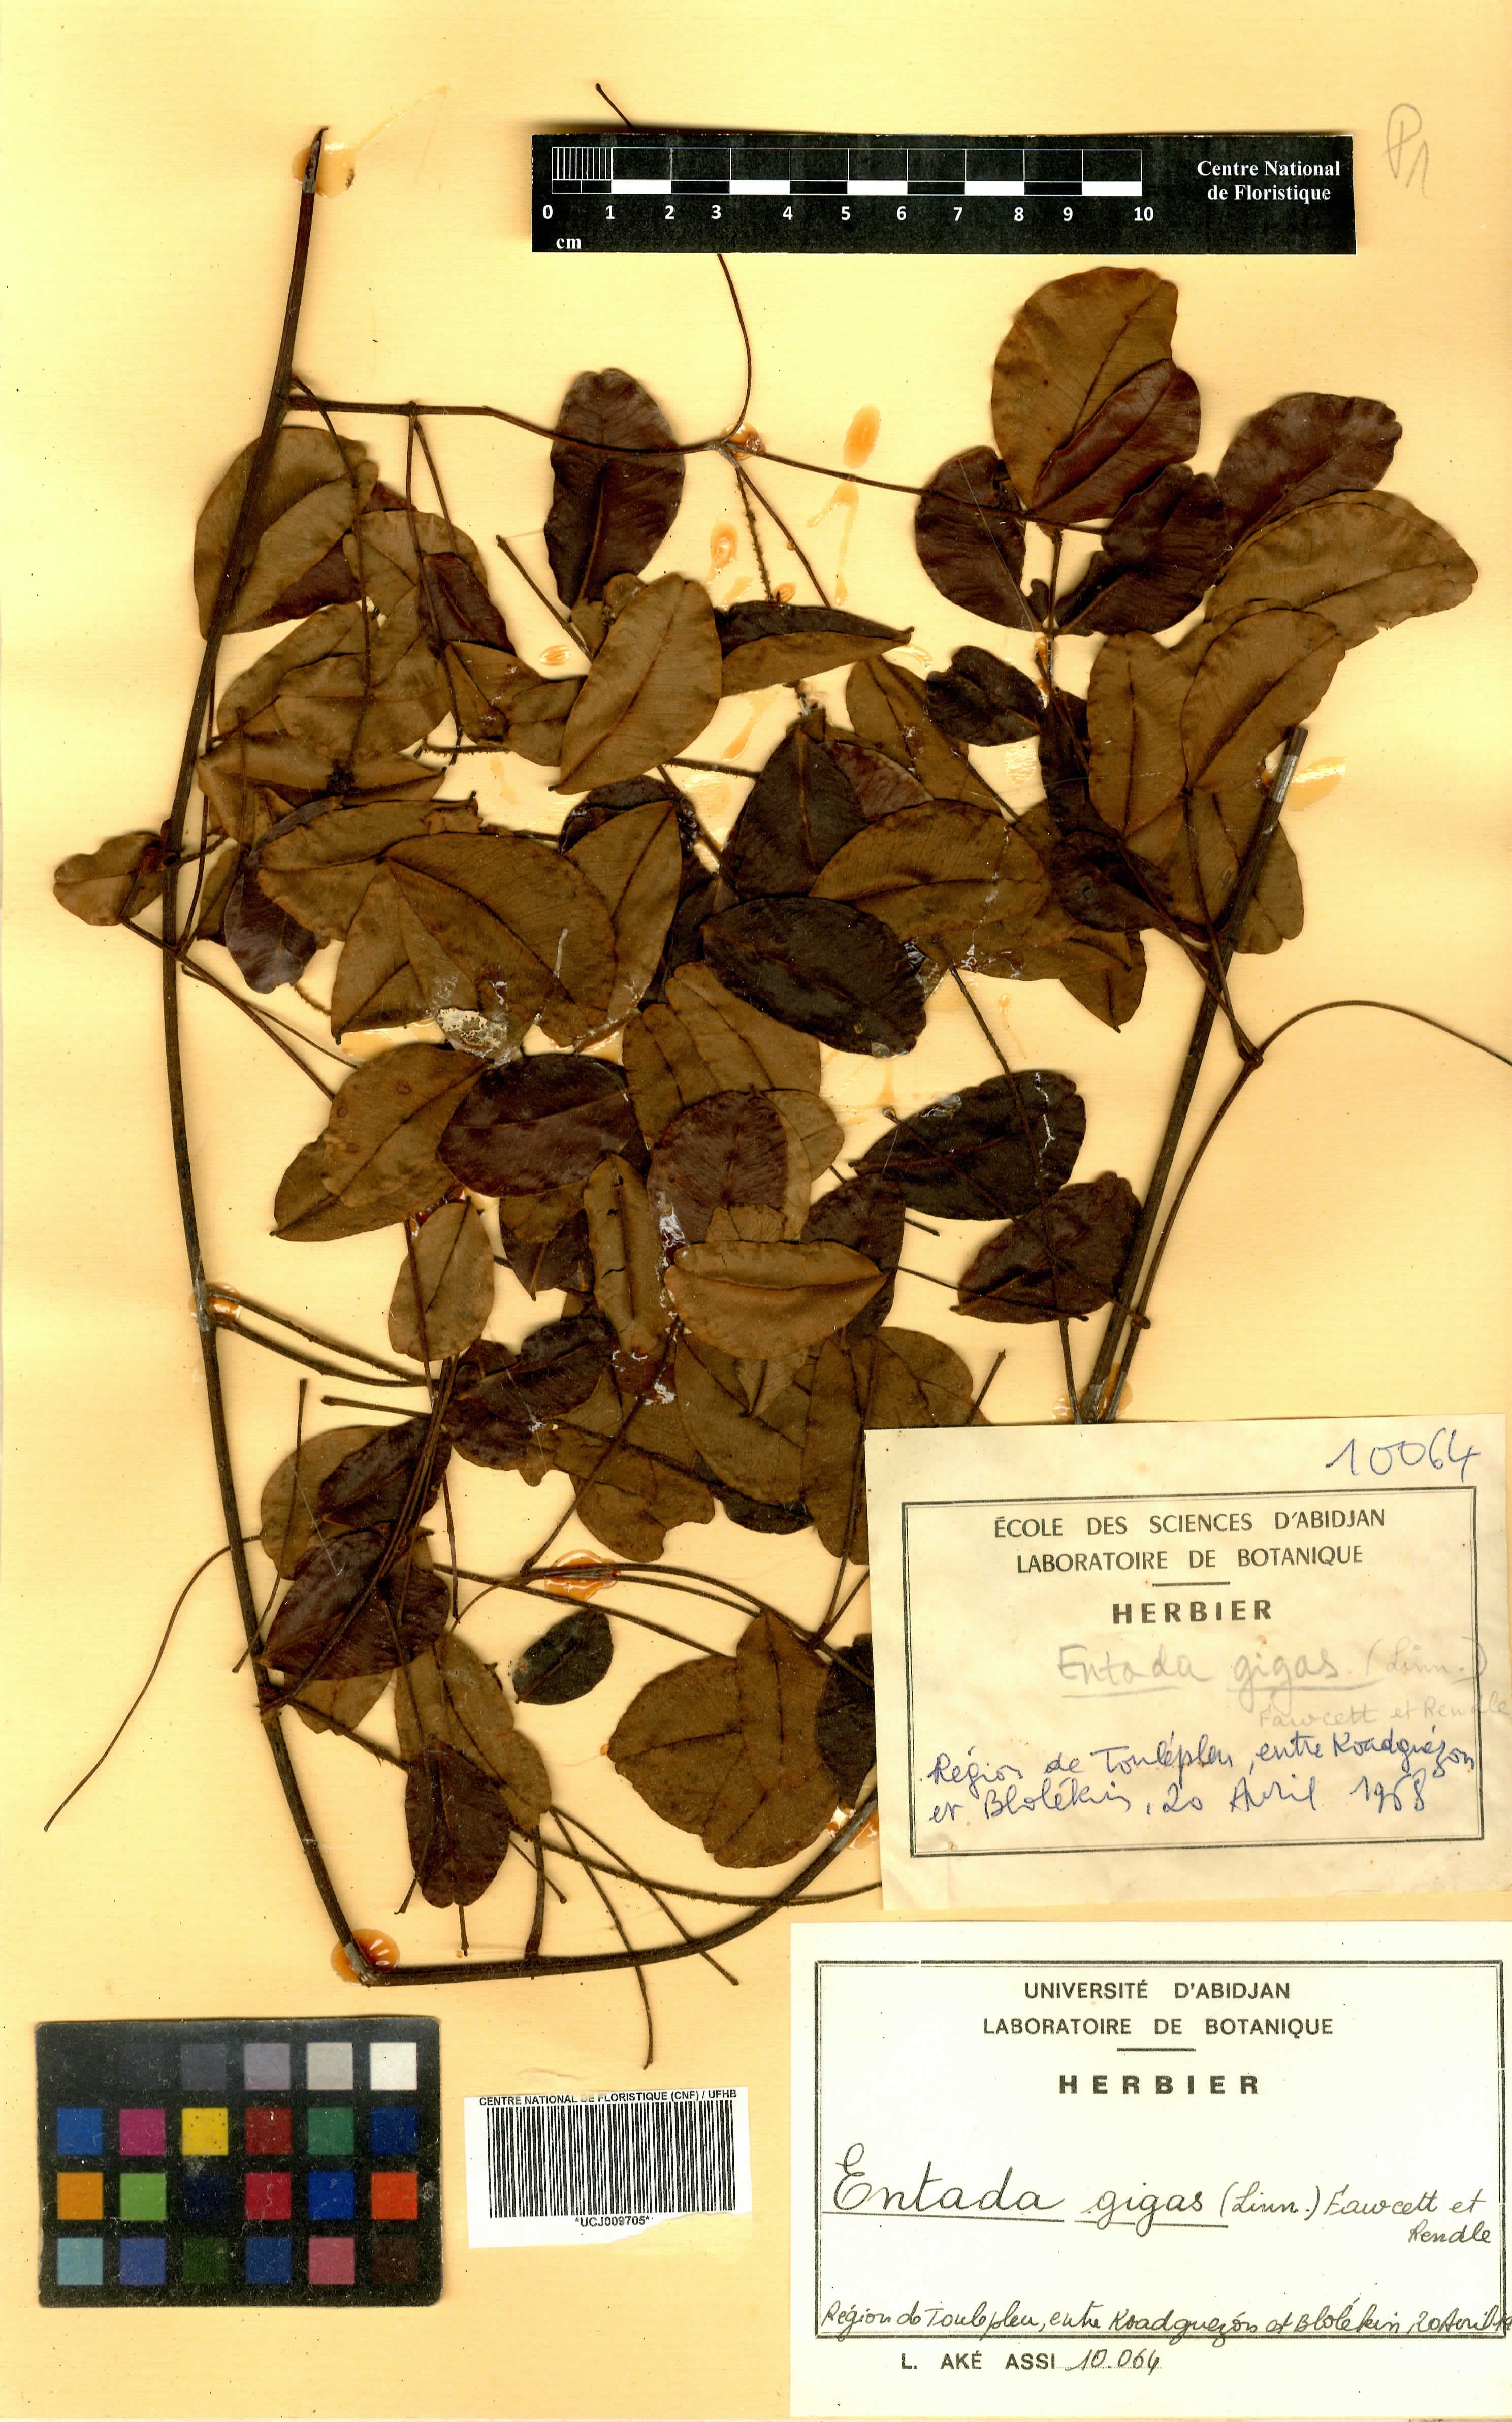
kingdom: Plantae
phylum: Tracheophyta
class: Magnoliopsida
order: Fabales
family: Fabaceae
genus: Entada
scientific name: Entada gigas
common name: Nicker-bean
